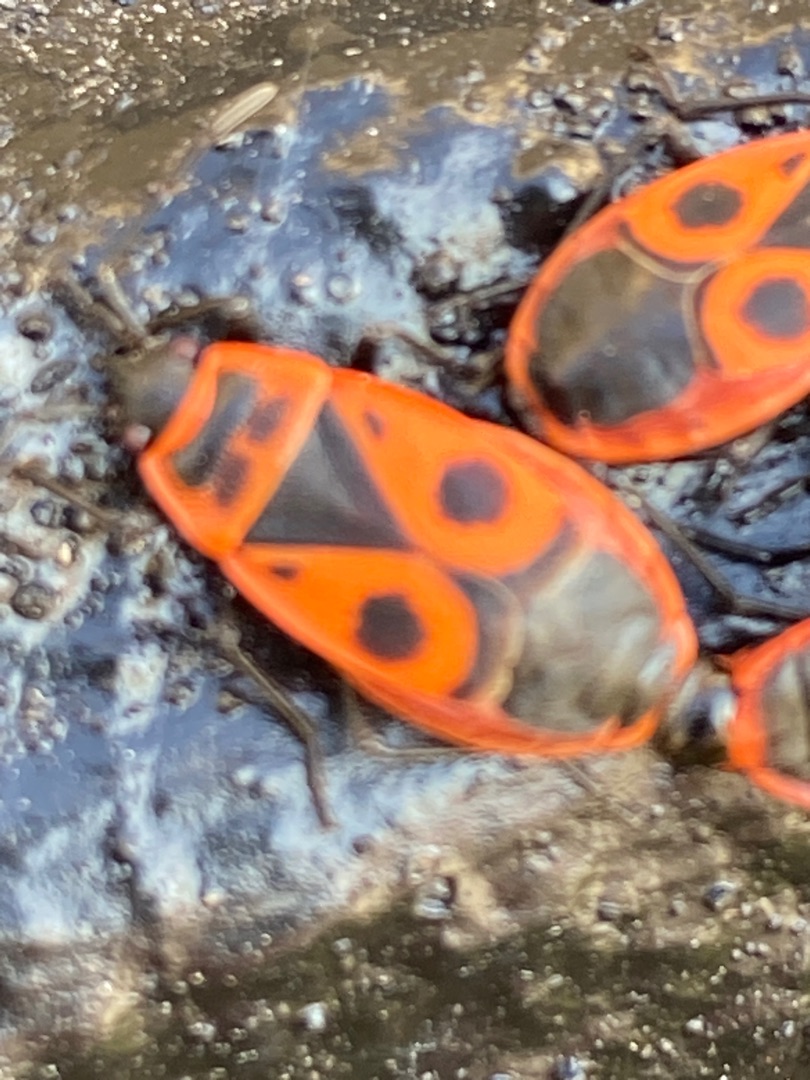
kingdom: Animalia
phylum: Arthropoda
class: Insecta
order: Hemiptera
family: Pyrrhocoridae
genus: Pyrrhocoris
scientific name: Pyrrhocoris apterus
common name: Ildtæge
